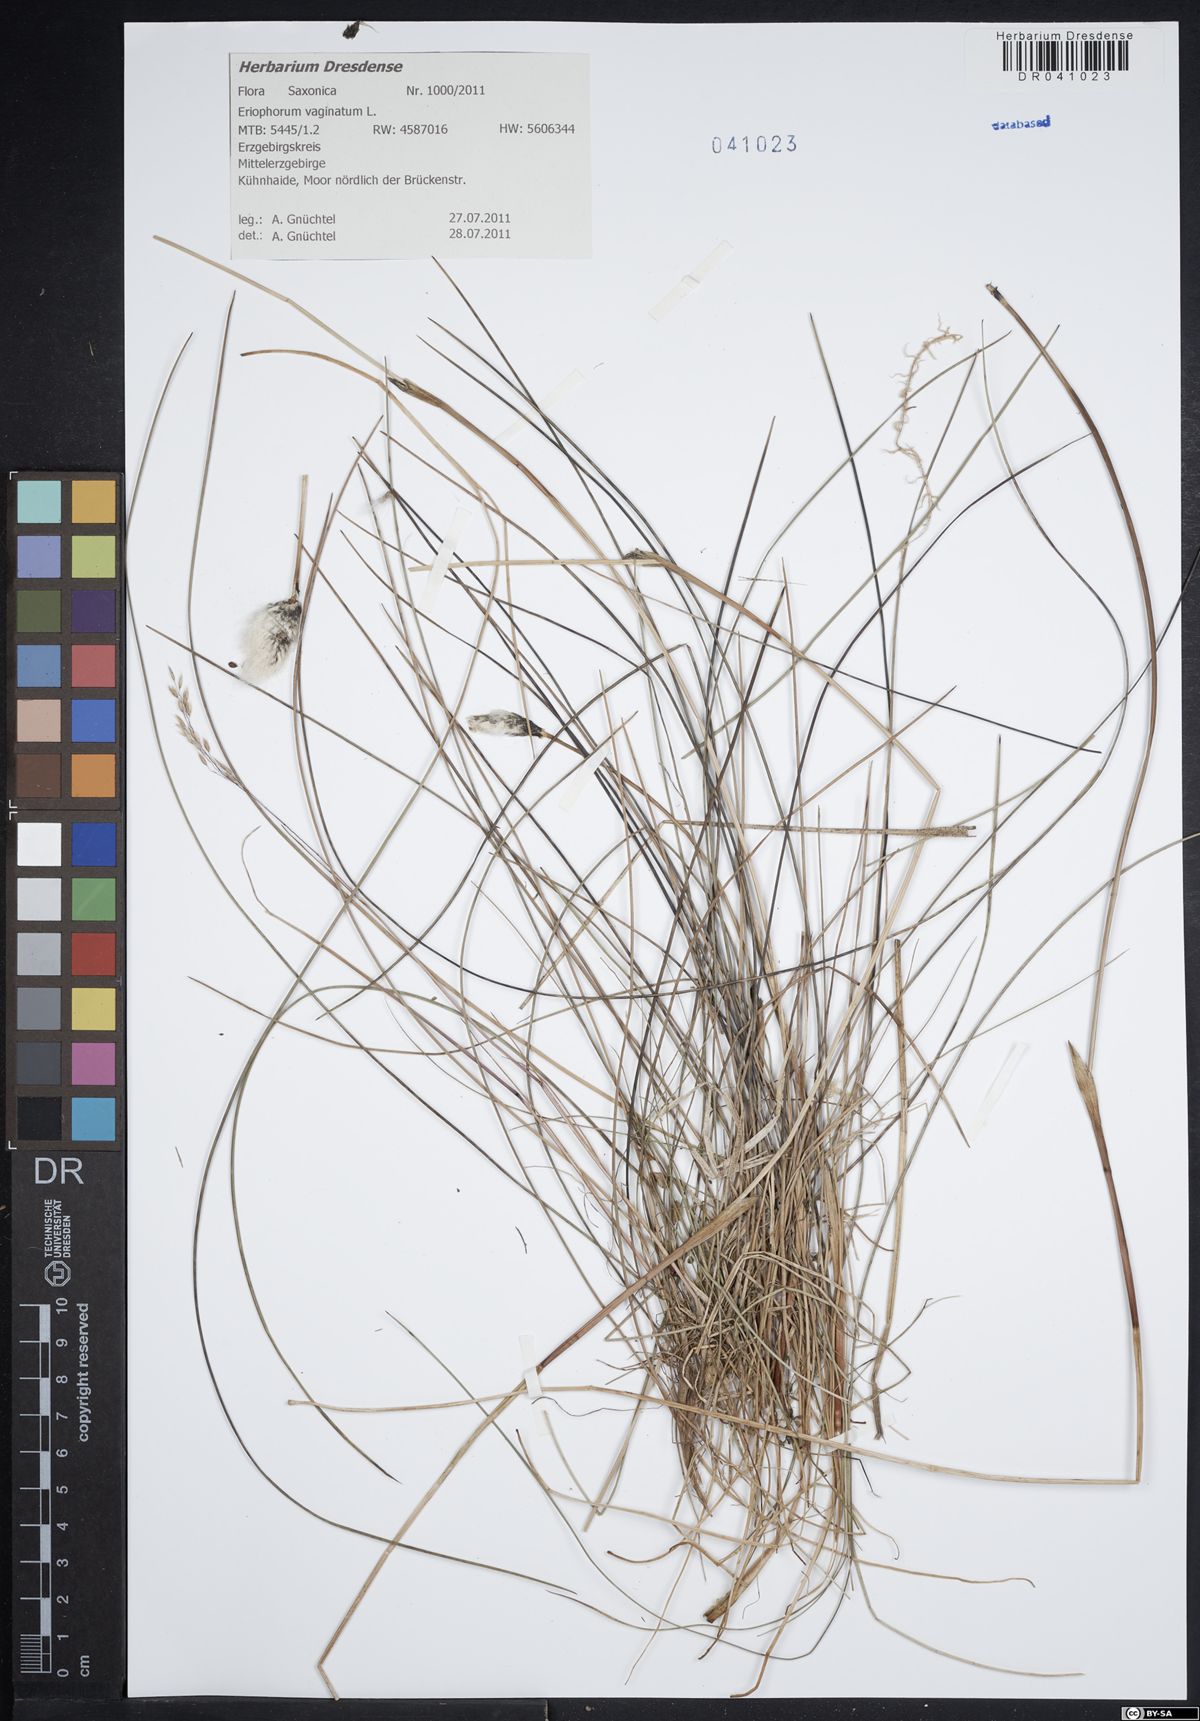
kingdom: Plantae
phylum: Tracheophyta
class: Liliopsida
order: Poales
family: Cyperaceae
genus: Eriophorum
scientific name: Eriophorum vaginatum
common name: Hare's-tail cottongrass
